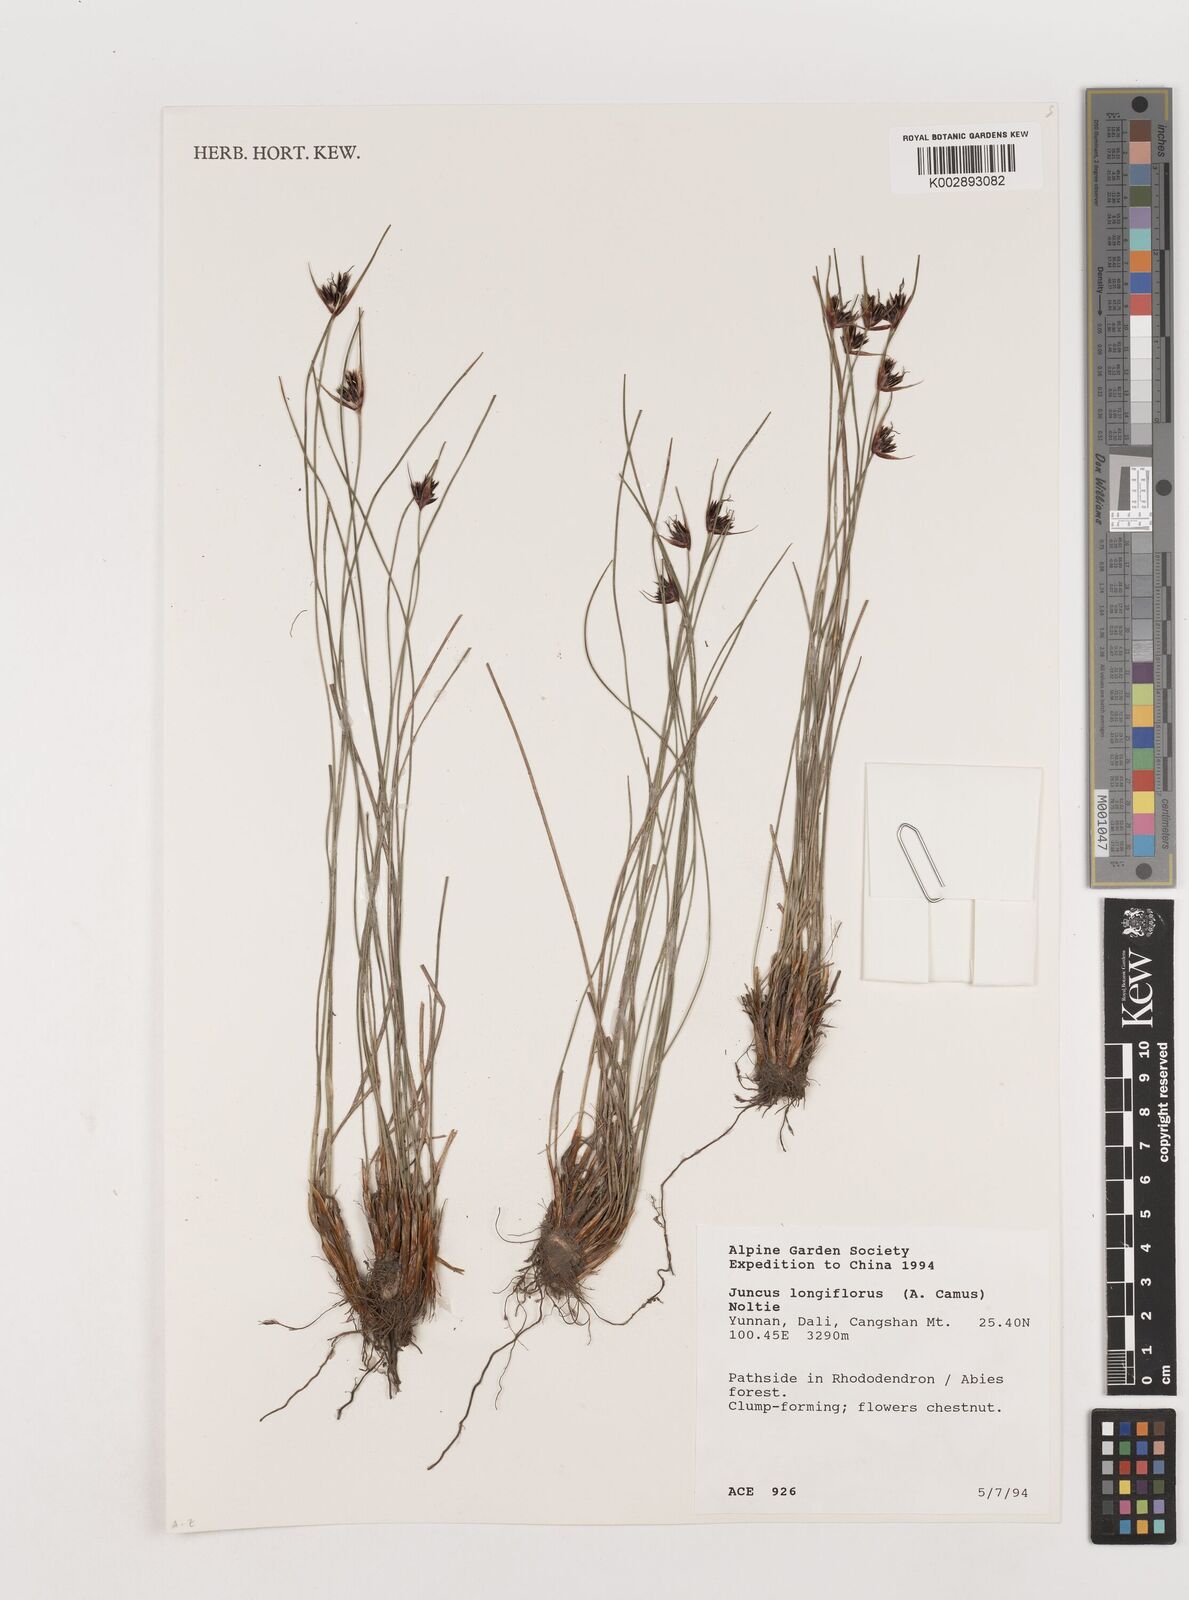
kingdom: Plantae
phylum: Tracheophyta
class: Liliopsida
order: Poales
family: Juncaceae
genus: Juncus
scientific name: Juncus longiflorus
